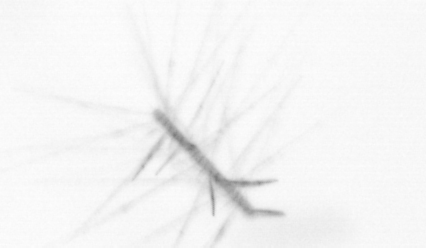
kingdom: Chromista
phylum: Ochrophyta
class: Bacillariophyceae
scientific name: Bacillariophyceae
